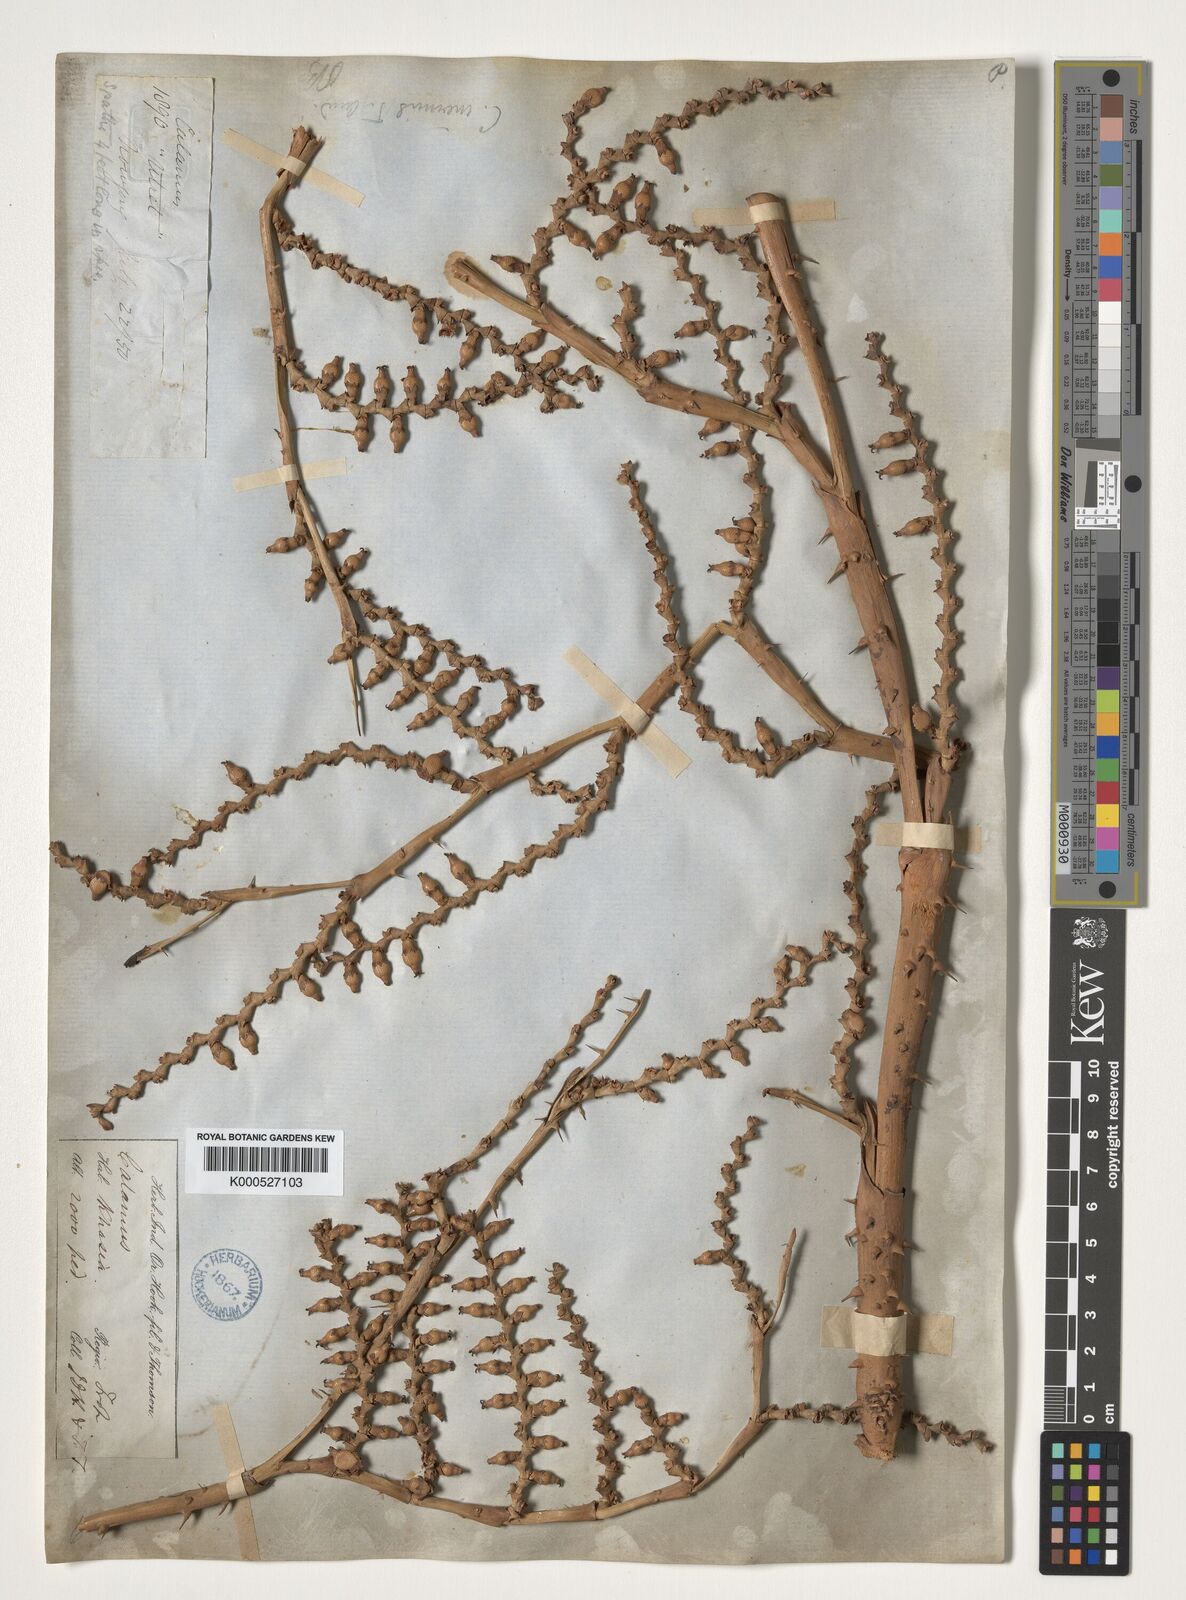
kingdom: Plantae
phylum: Tracheophyta
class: Liliopsida
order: Arecales
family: Arecaceae
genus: Calamus
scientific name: Calamus latifolius
